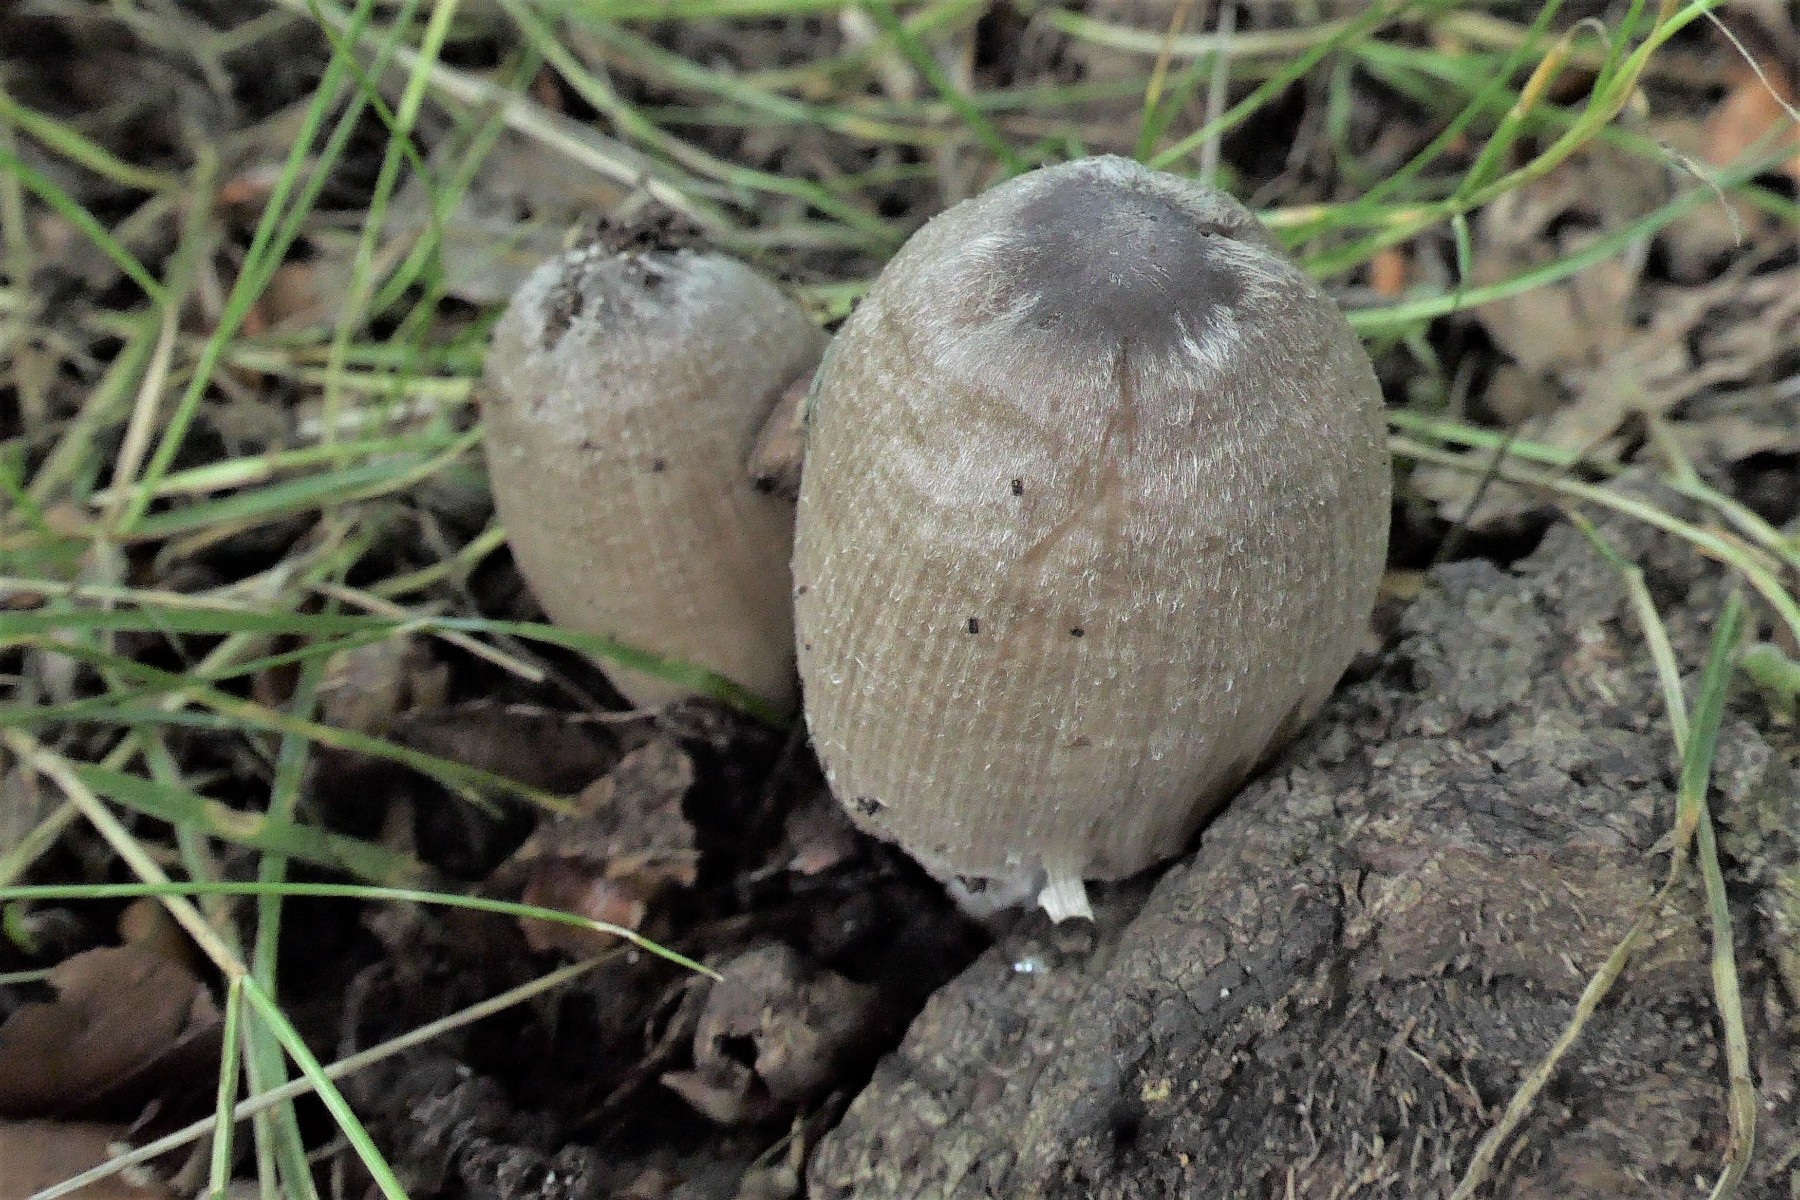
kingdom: Fungi
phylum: Basidiomycota
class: Agaricomycetes
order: Agaricales
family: Psathyrellaceae
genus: Coprinopsis
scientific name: Coprinopsis insignis
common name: stor blækhat
